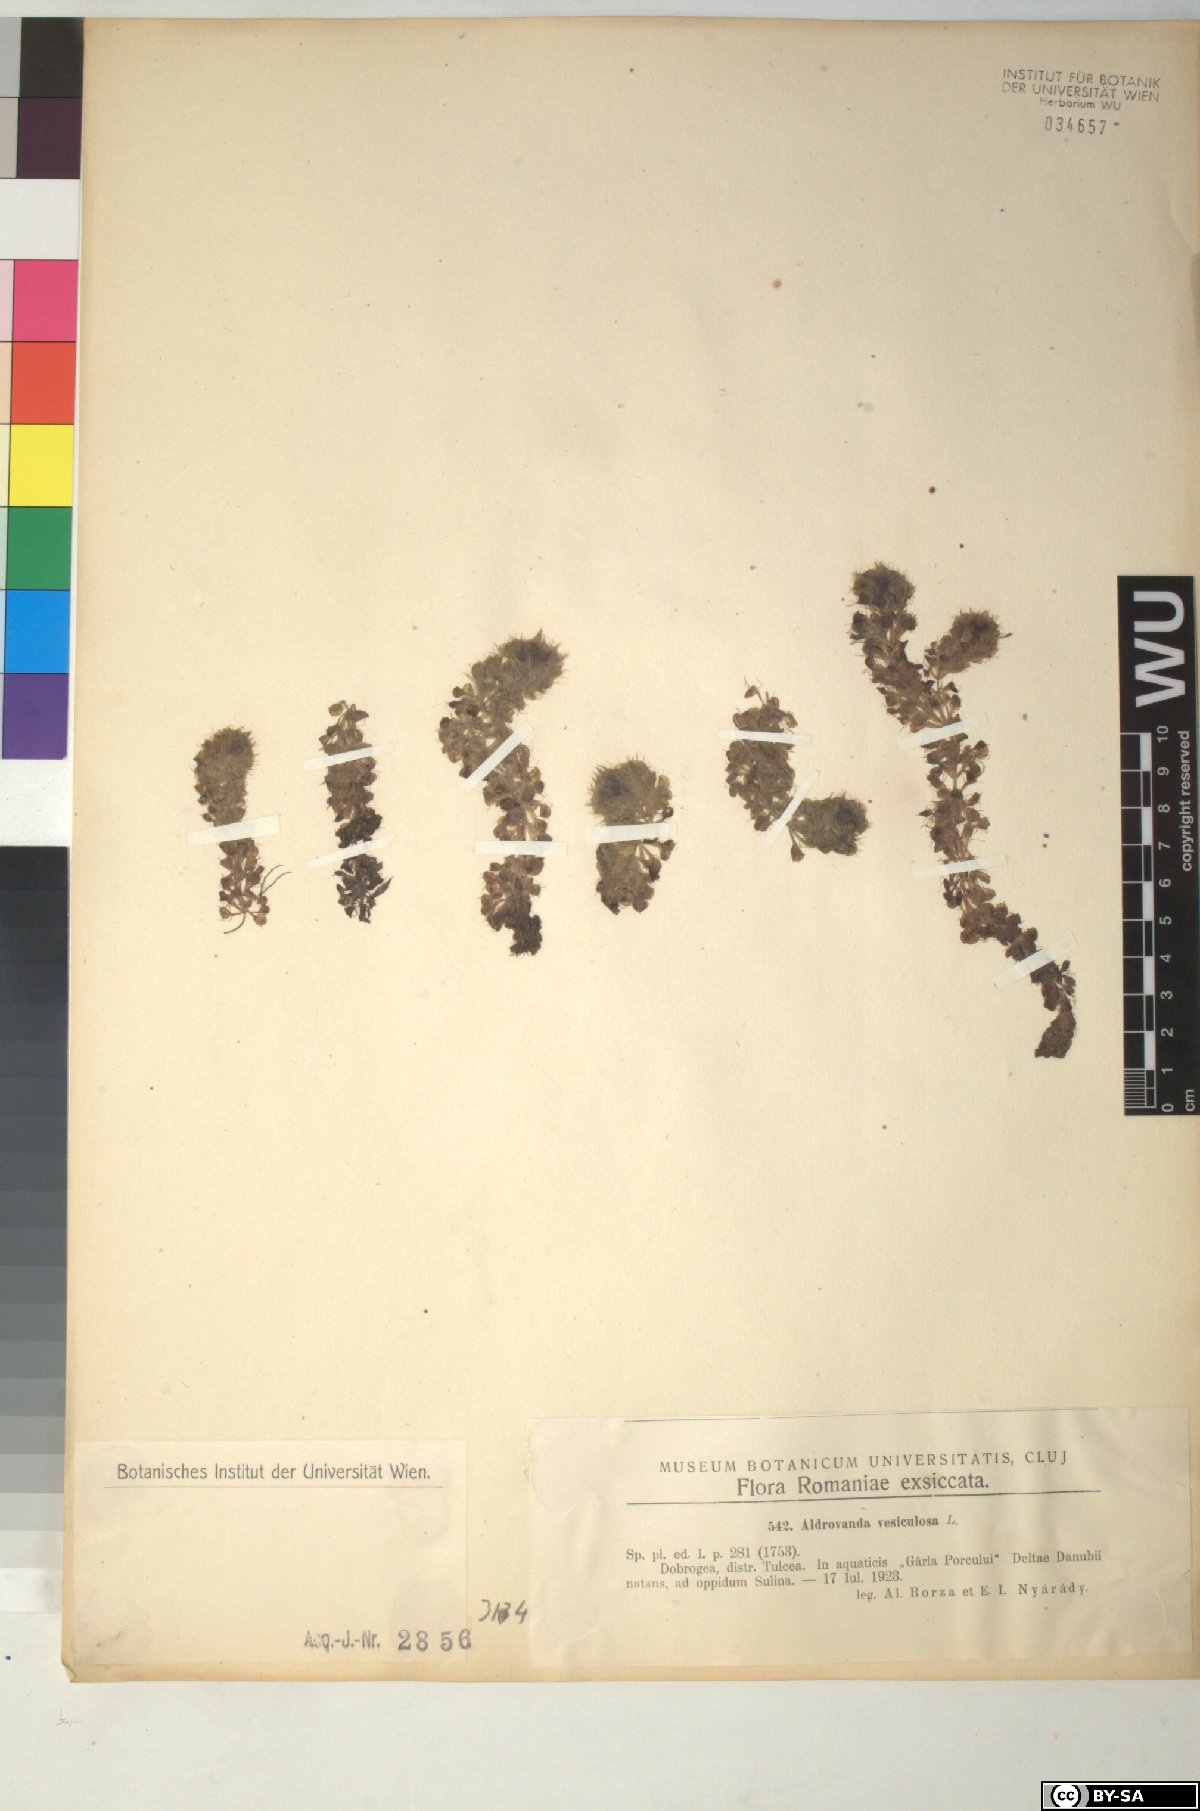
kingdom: Plantae
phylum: Tracheophyta
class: Magnoliopsida
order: Caryophyllales
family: Droseraceae
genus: Aldrovanda
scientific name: Aldrovanda vesiculosa
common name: Waterwheel plant
